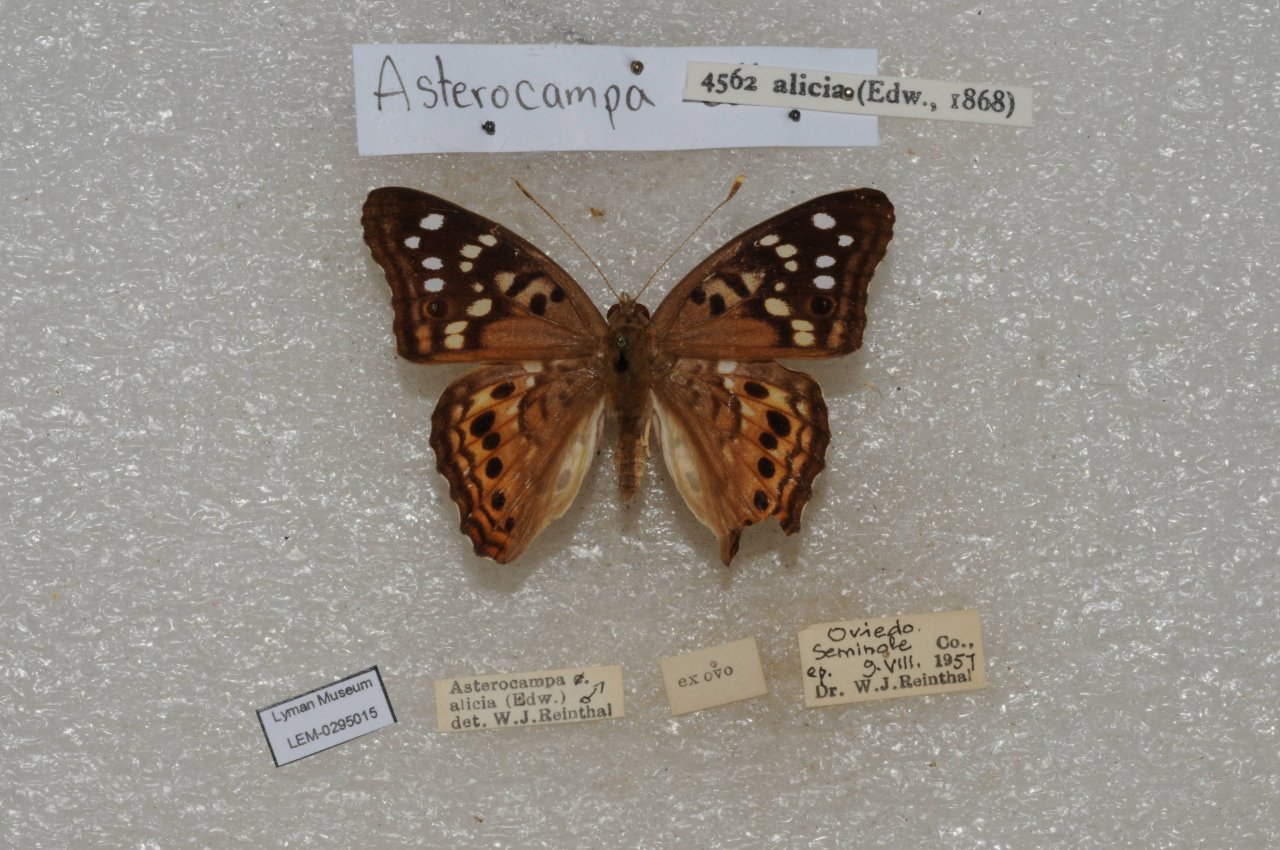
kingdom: Animalia
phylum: Arthropoda
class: Insecta
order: Lepidoptera
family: Nymphalidae
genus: Asterocampa
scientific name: Asterocampa celtis
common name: Hackberry Emperor
